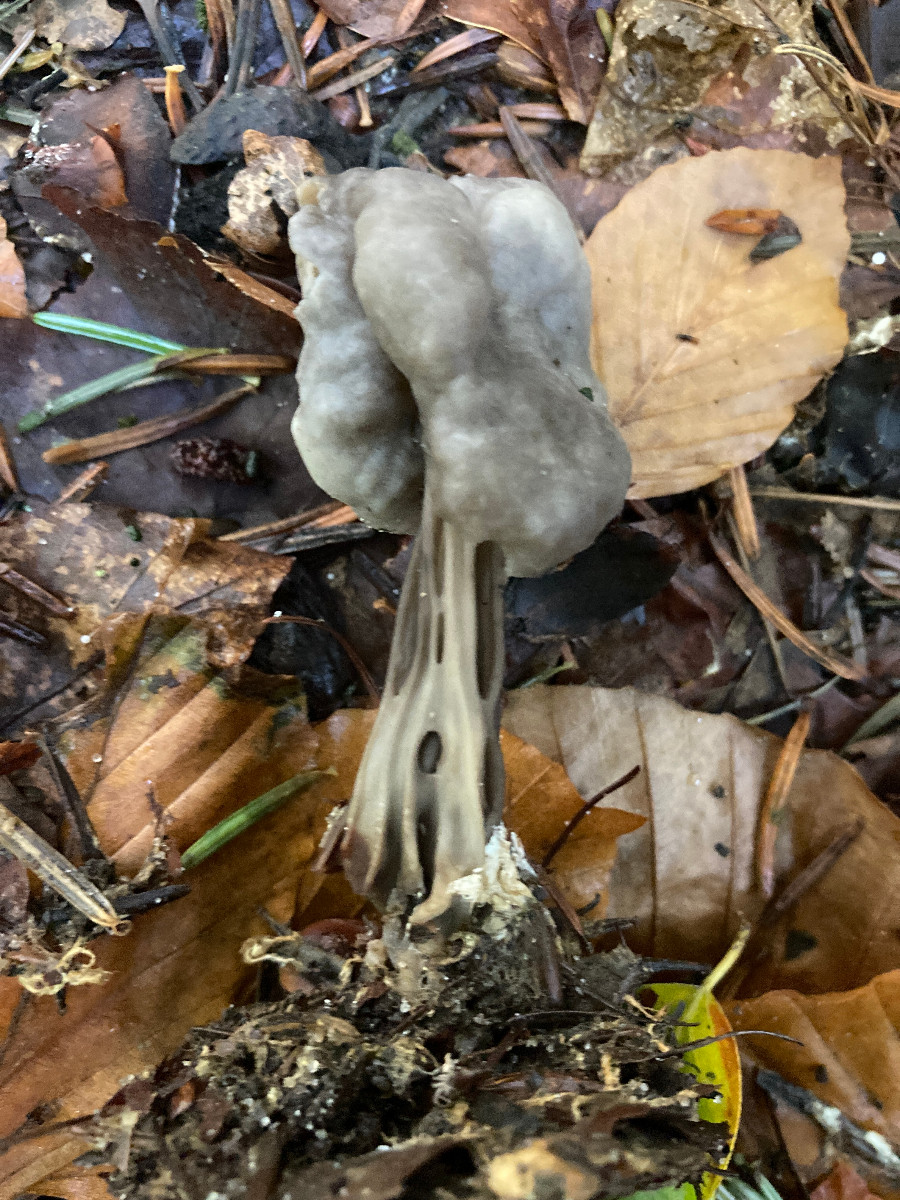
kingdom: Fungi
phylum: Ascomycota
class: Pezizomycetes
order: Pezizales
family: Helvellaceae
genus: Helvella
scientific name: Helvella lacunosa
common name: grubet foldhat
